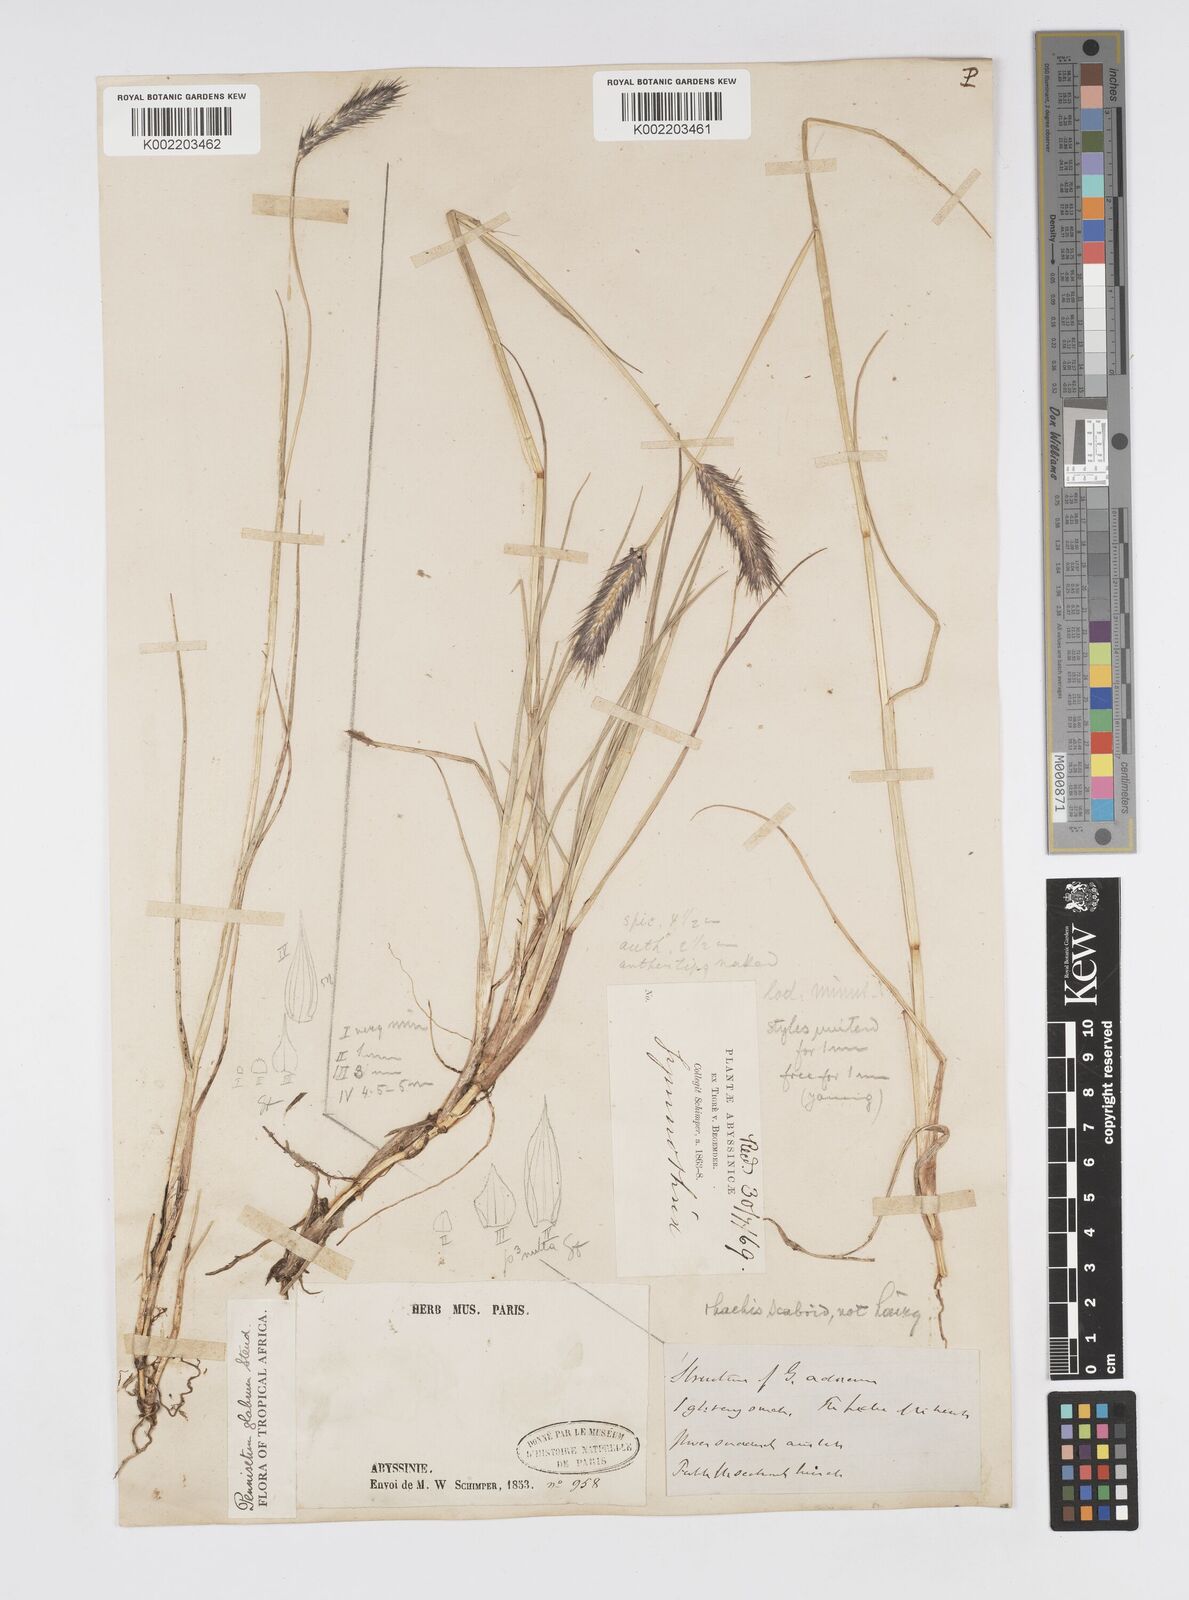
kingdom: Plantae
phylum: Tracheophyta
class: Liliopsida
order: Poales
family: Poaceae
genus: Cenchrus
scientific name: Cenchrus geniculatus
